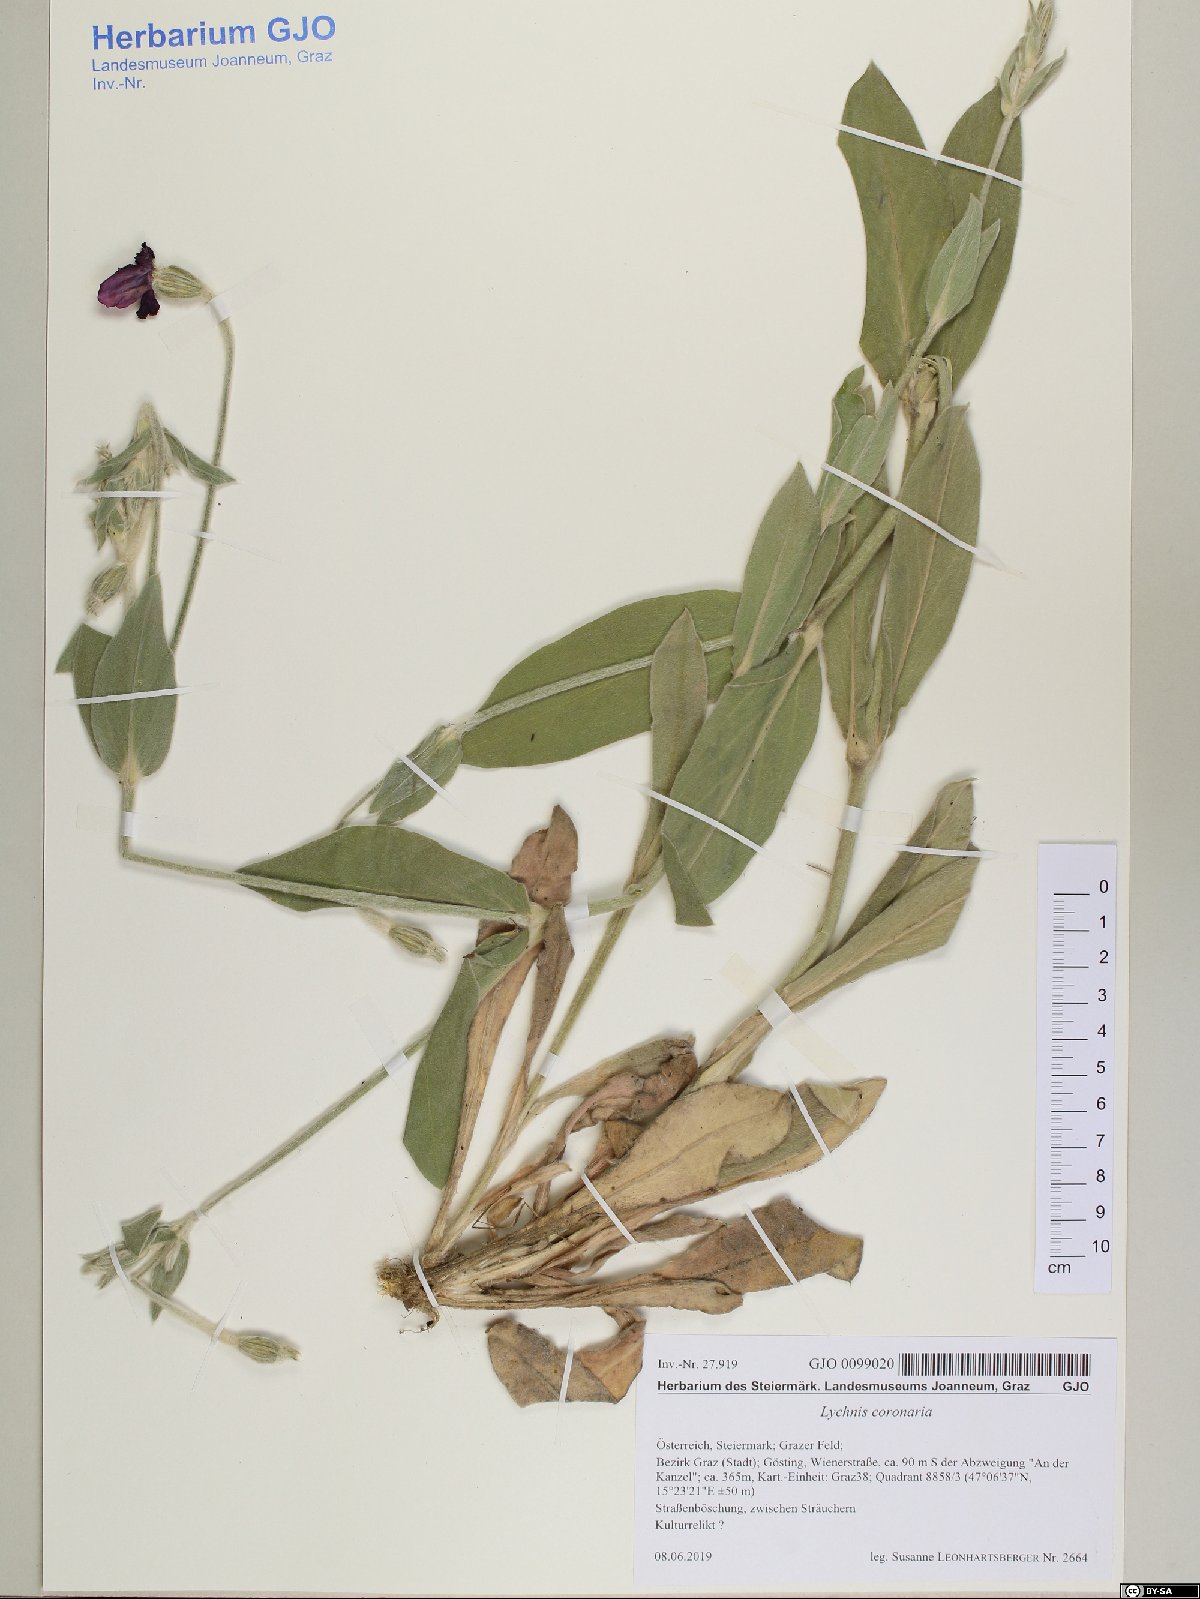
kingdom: Plantae
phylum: Tracheophyta
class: Magnoliopsida
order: Caryophyllales
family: Caryophyllaceae
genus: Silene
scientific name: Silene coronaria
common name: Rose campion
